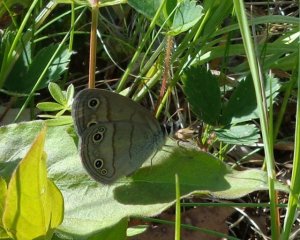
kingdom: Animalia
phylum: Arthropoda
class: Insecta
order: Lepidoptera
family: Nymphalidae
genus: Euptychia
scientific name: Euptychia cymela
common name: Little Wood Satyr
